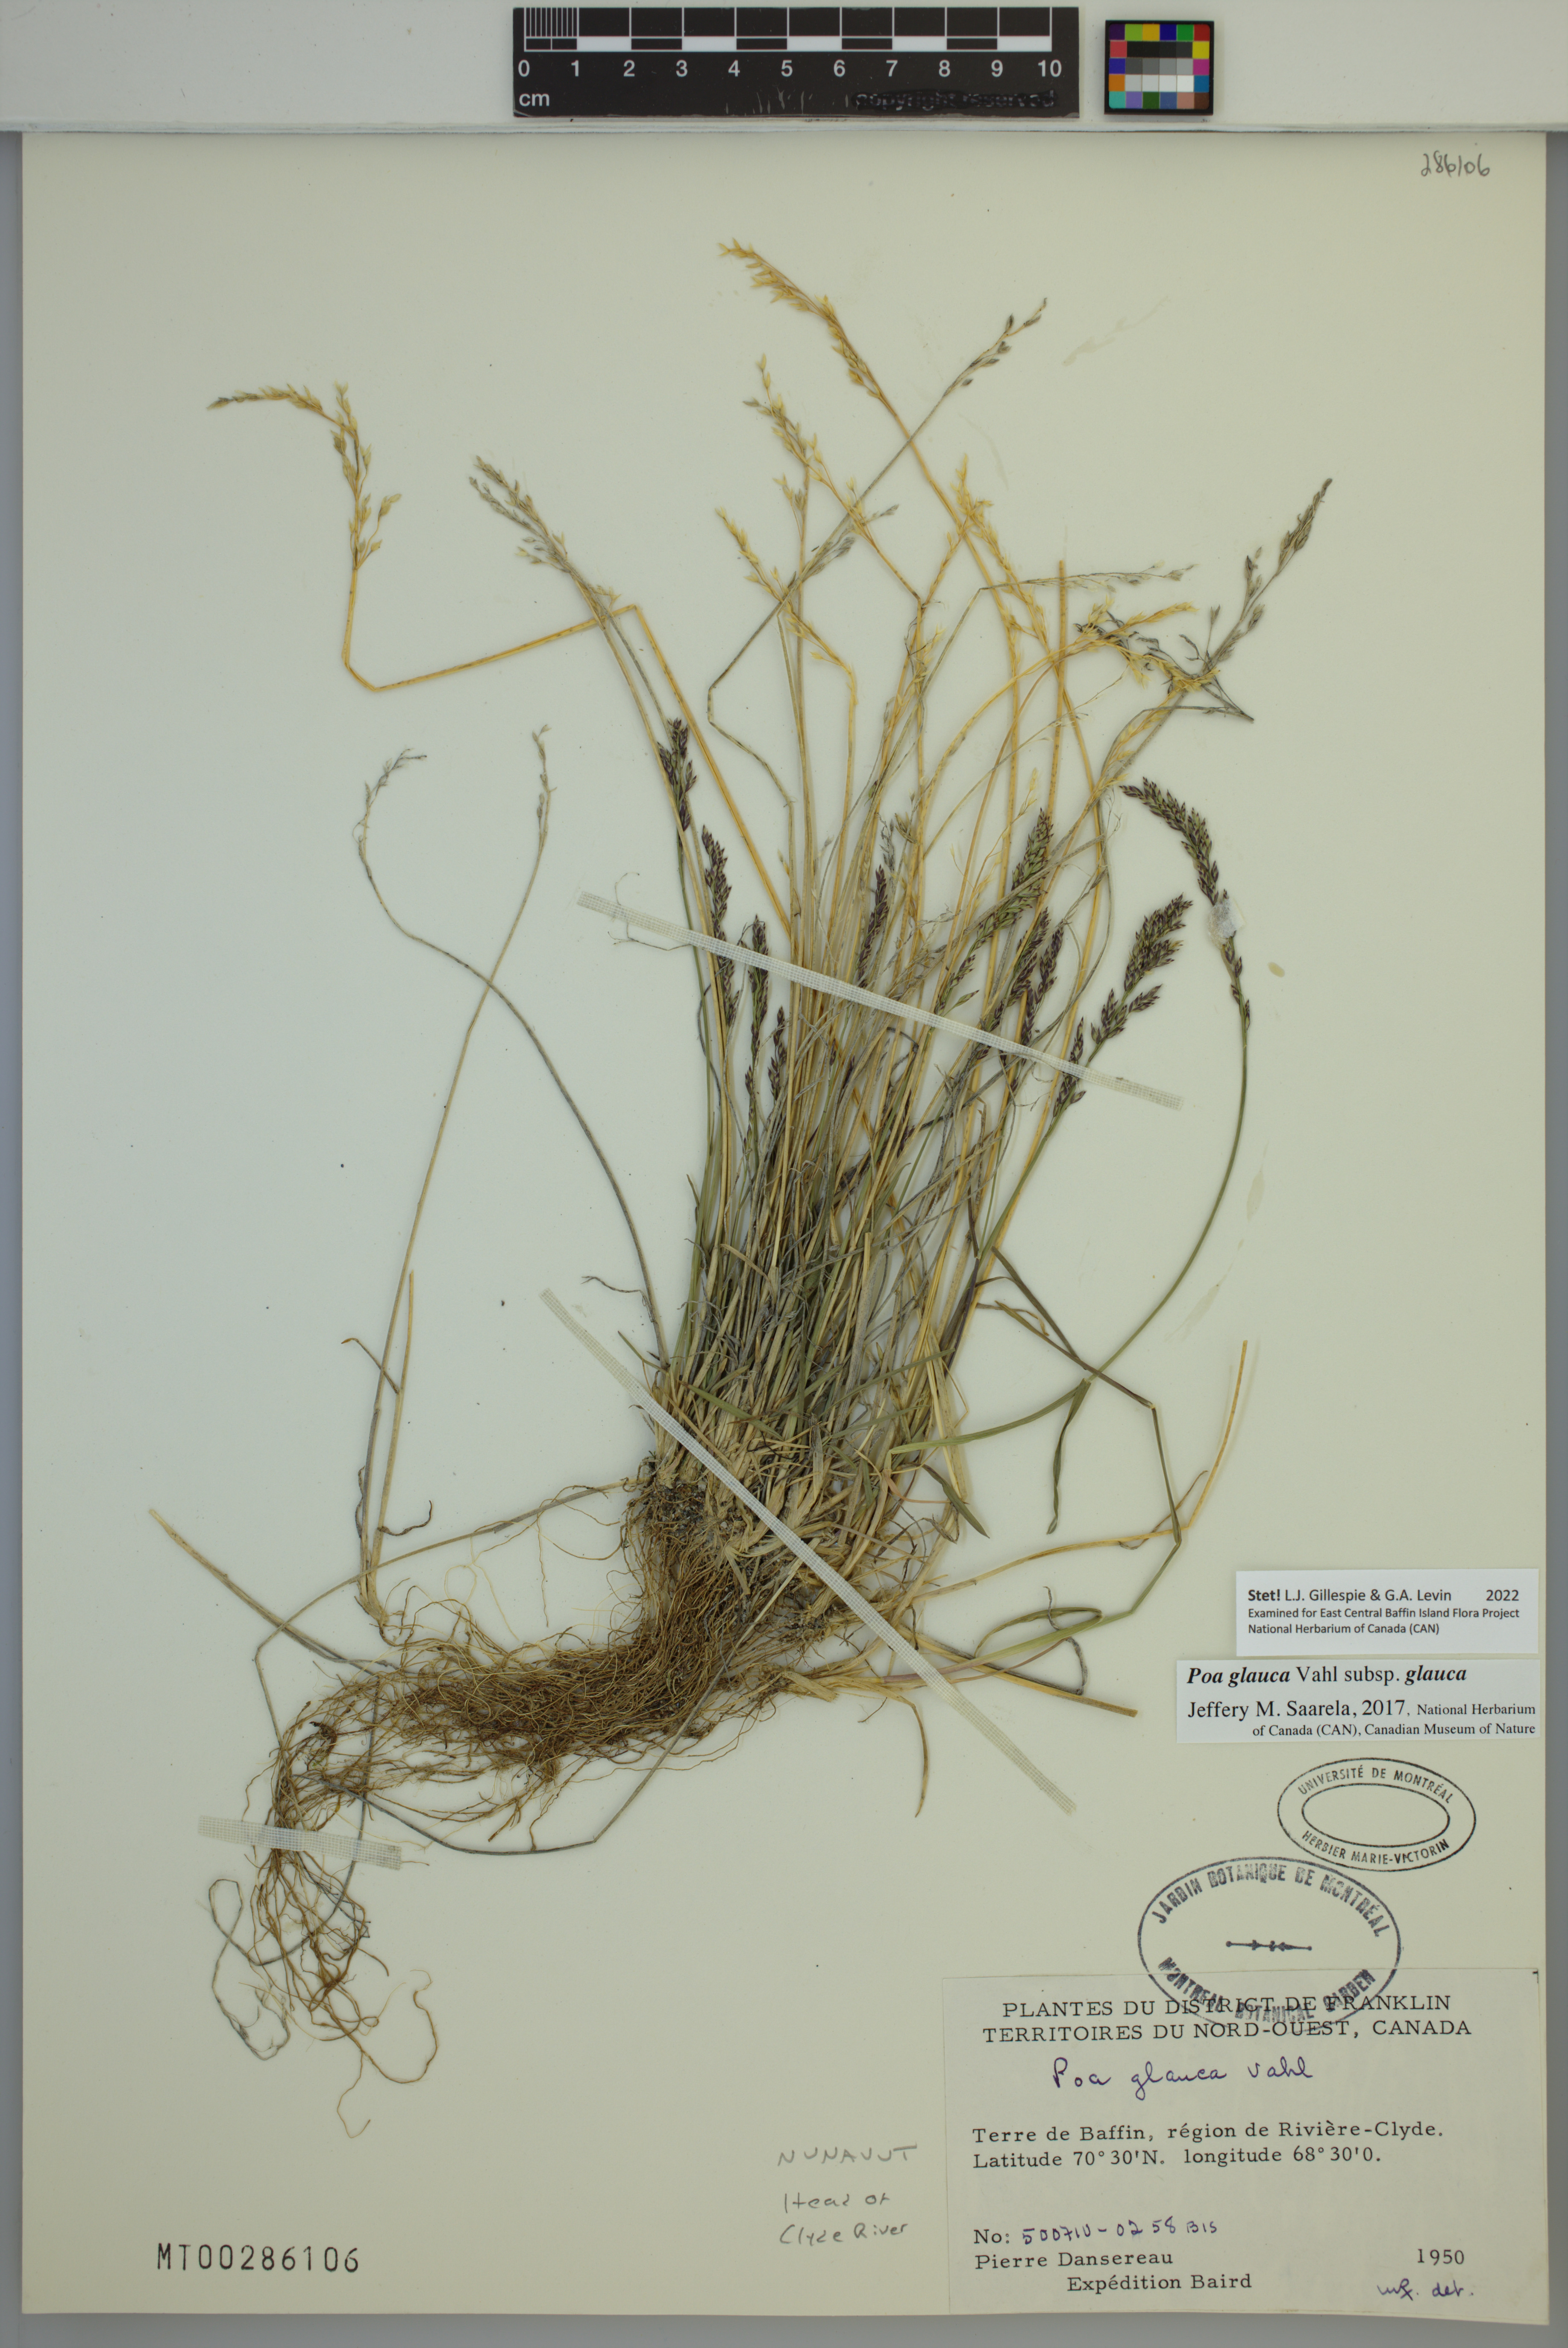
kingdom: Plantae
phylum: Tracheophyta
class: Liliopsida
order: Poales
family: Poaceae
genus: Poa
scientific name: Poa glauca
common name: Glaucous bluegrass
